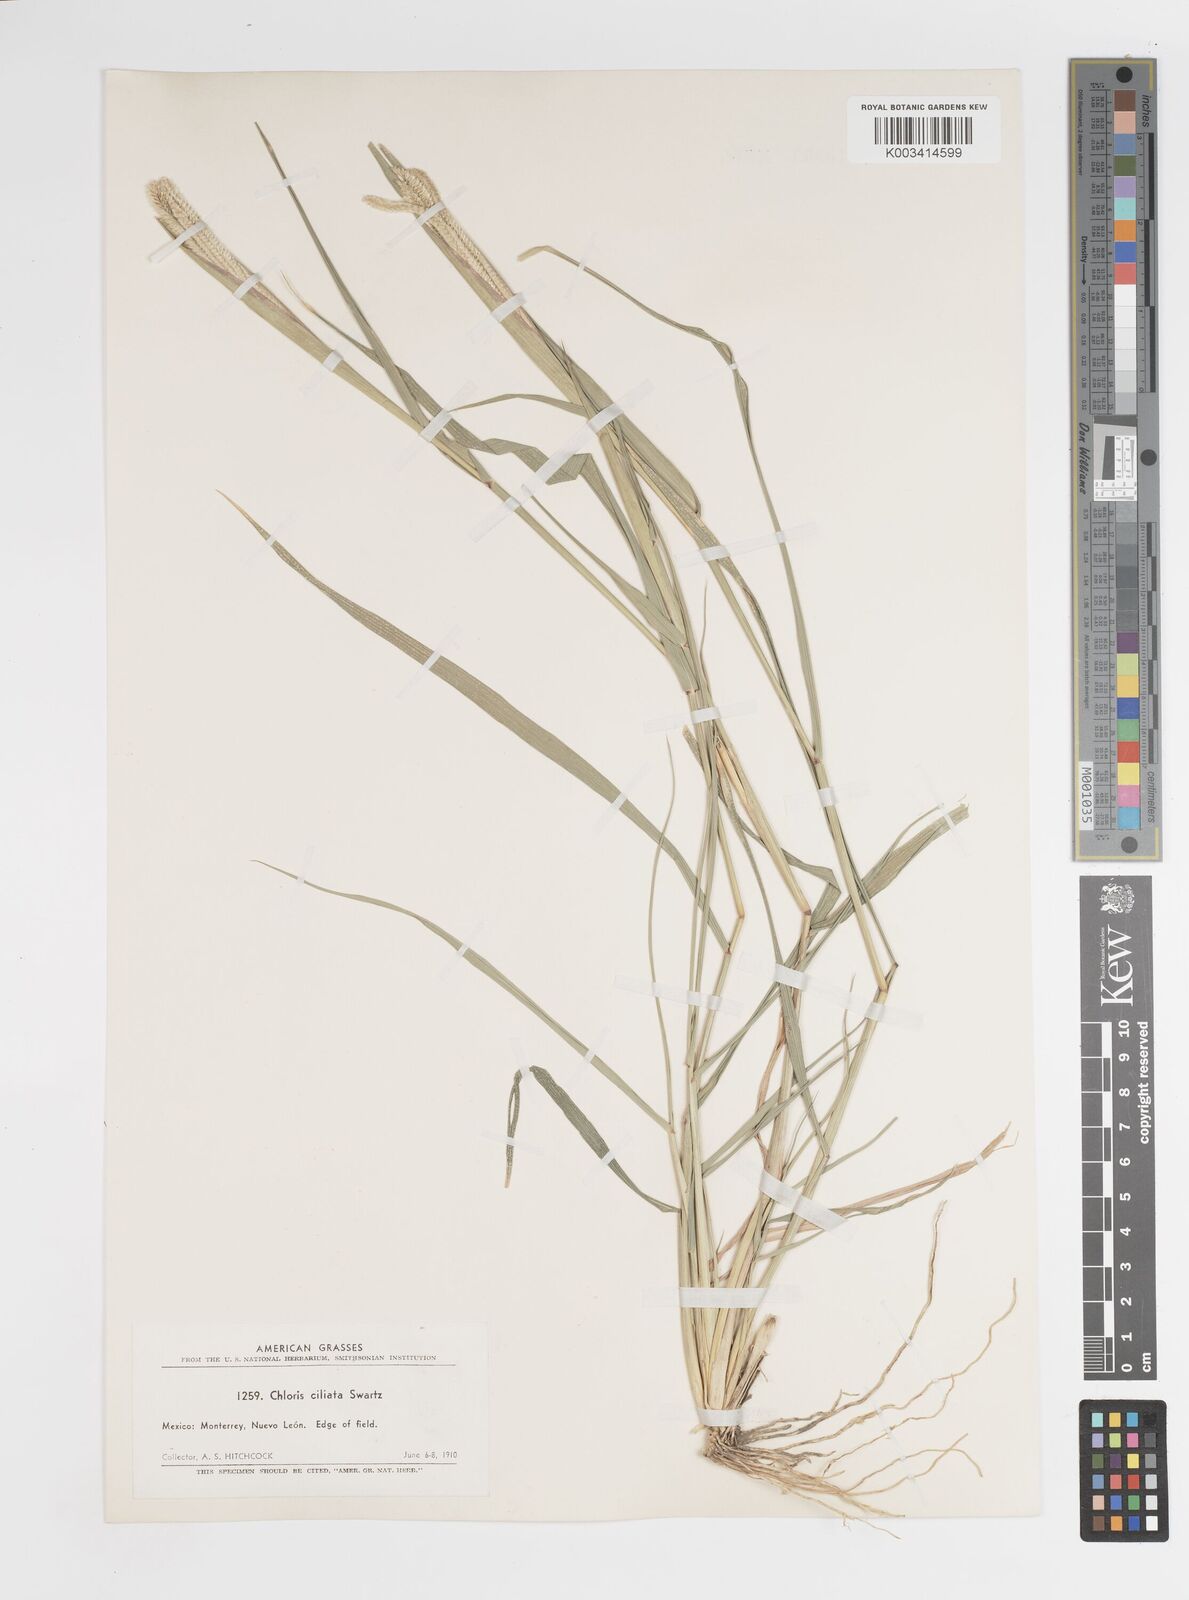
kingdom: Plantae
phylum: Tracheophyta
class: Liliopsida
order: Poales
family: Poaceae
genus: Stapfochloa
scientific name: Stapfochloa ciliata
